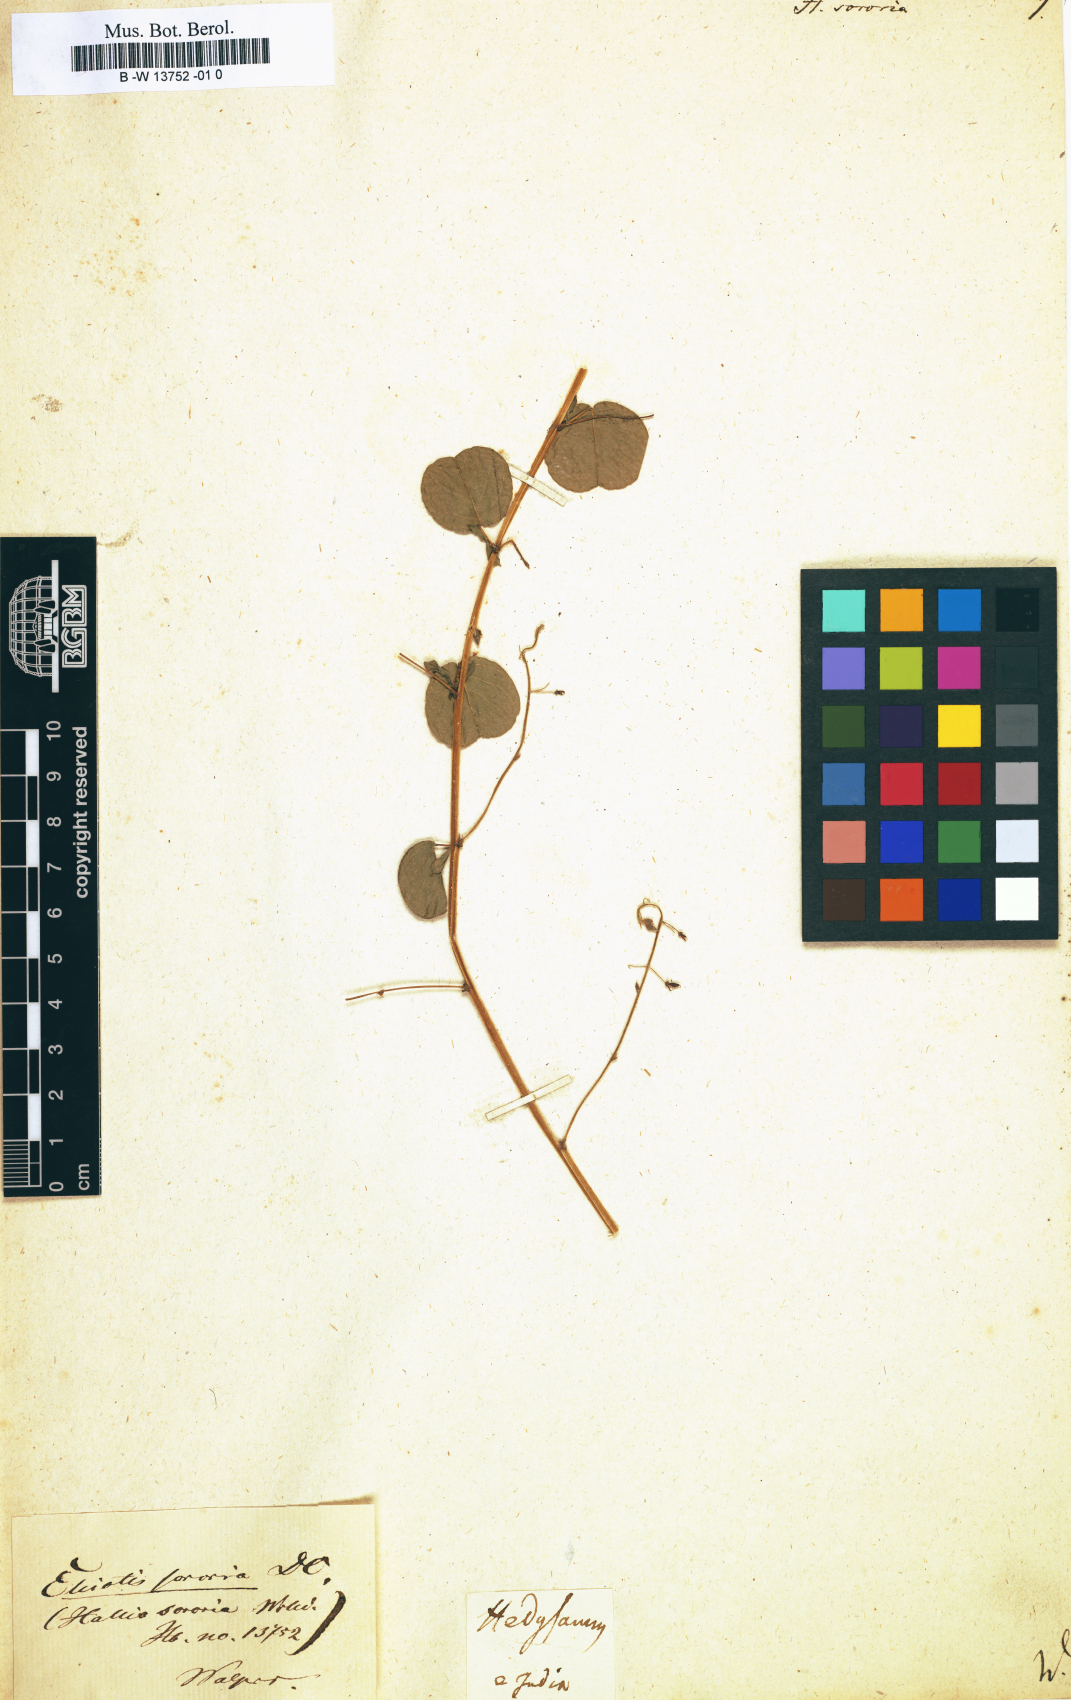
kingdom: Plantae
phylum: Tracheophyta
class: Magnoliopsida
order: Fabales
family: Fabaceae
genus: Eleiotis
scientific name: Eleiotis sororia
